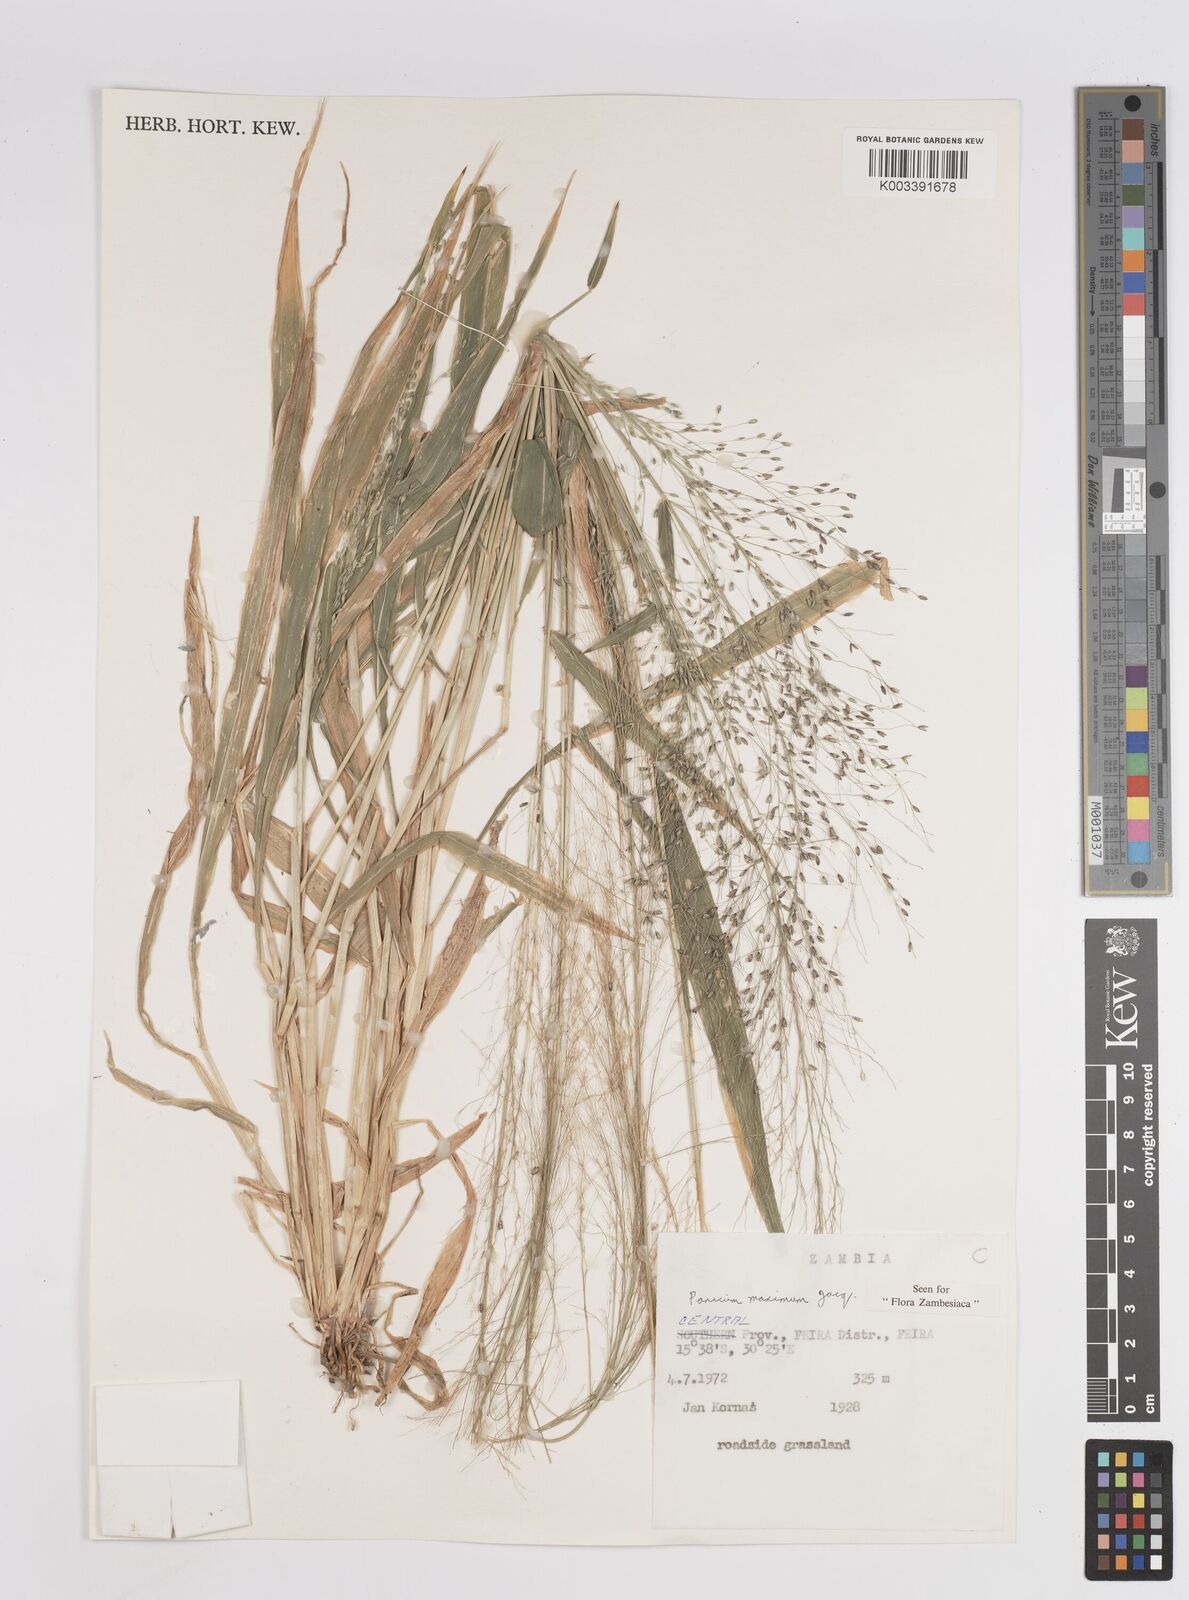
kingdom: Plantae
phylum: Tracheophyta
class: Liliopsida
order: Poales
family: Poaceae
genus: Megathyrsus
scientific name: Megathyrsus maximus
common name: Guineagrass
